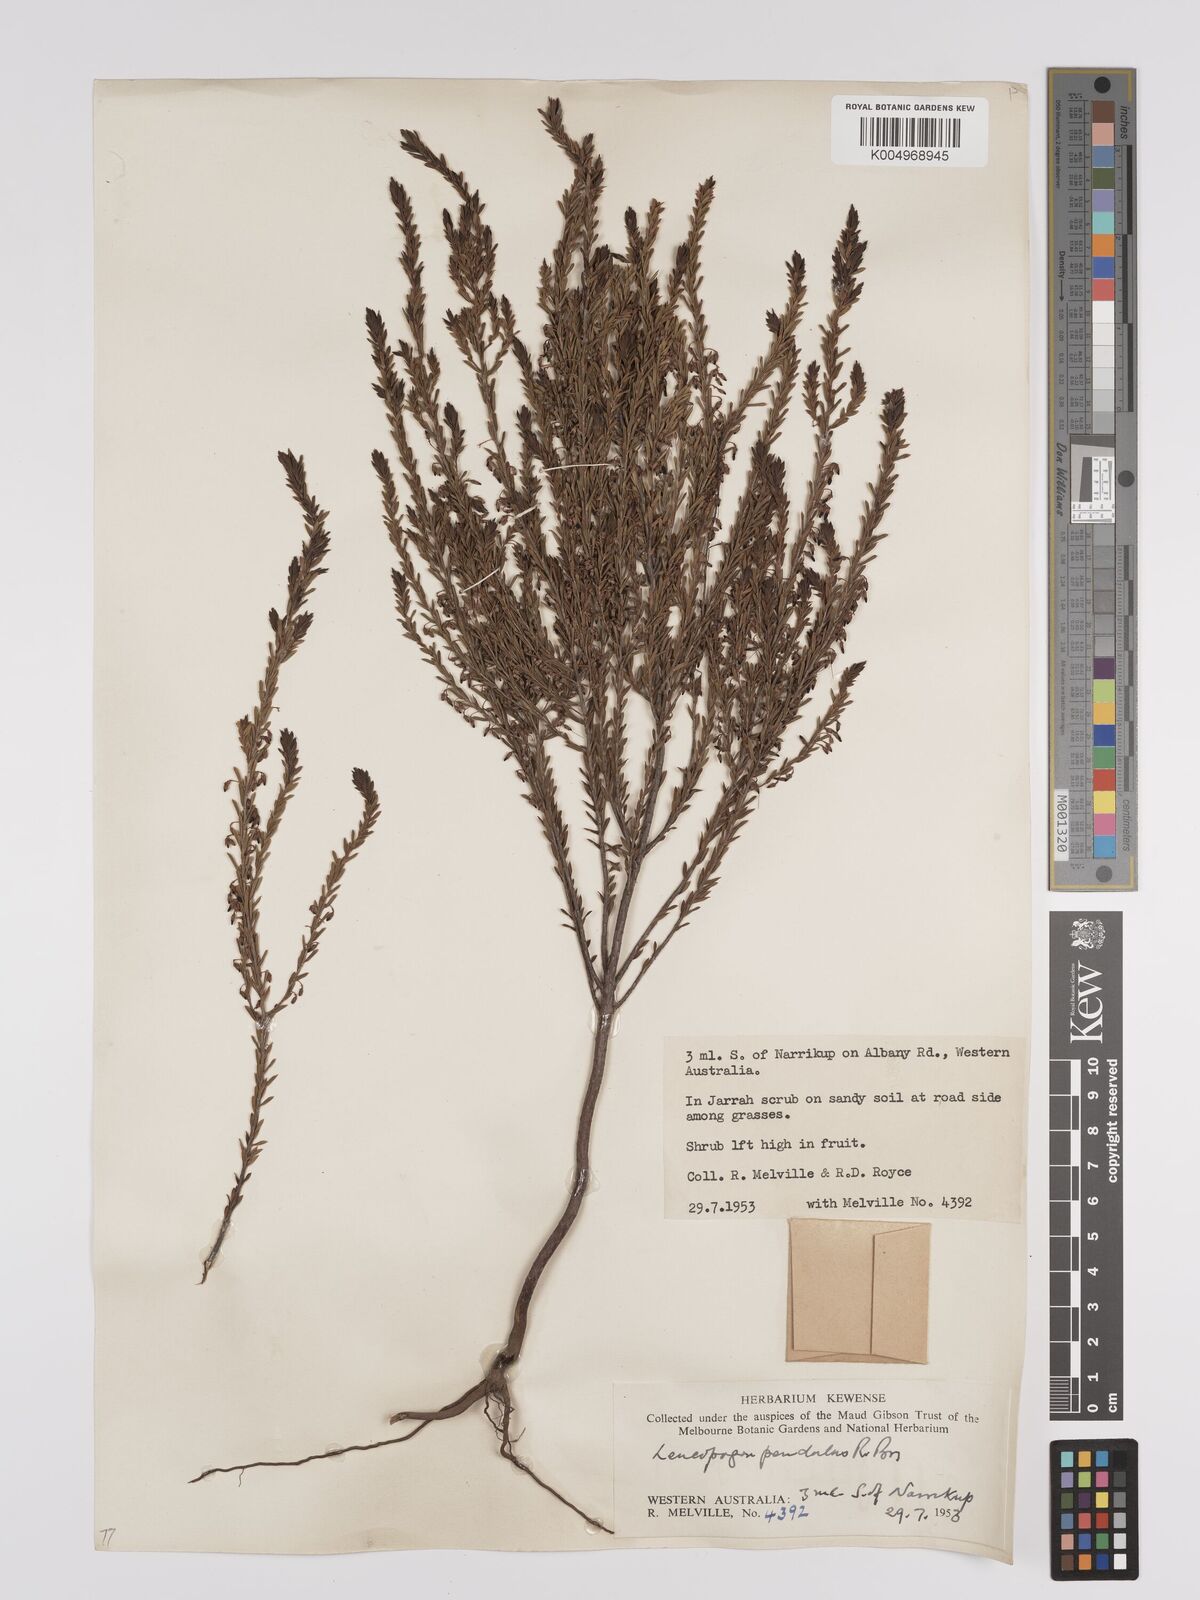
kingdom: Plantae
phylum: Tracheophyta
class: Magnoliopsida
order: Ericales
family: Ericaceae
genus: Styphelia
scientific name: Styphelia pendula
